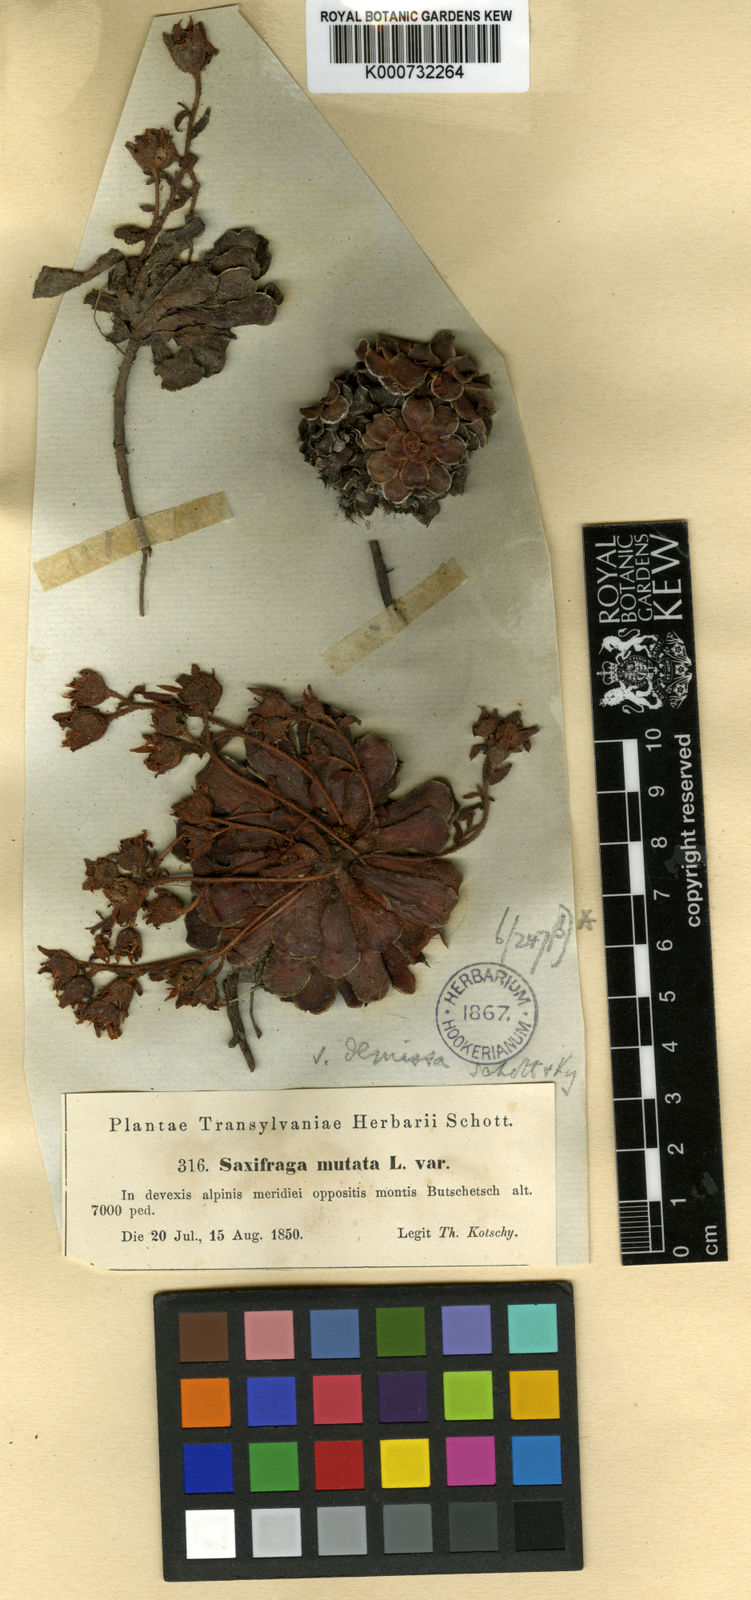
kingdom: Plantae
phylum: Tracheophyta
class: Magnoliopsida
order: Saxifragales
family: Saxifragaceae
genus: Saxifraga
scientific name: Saxifraga mutata
